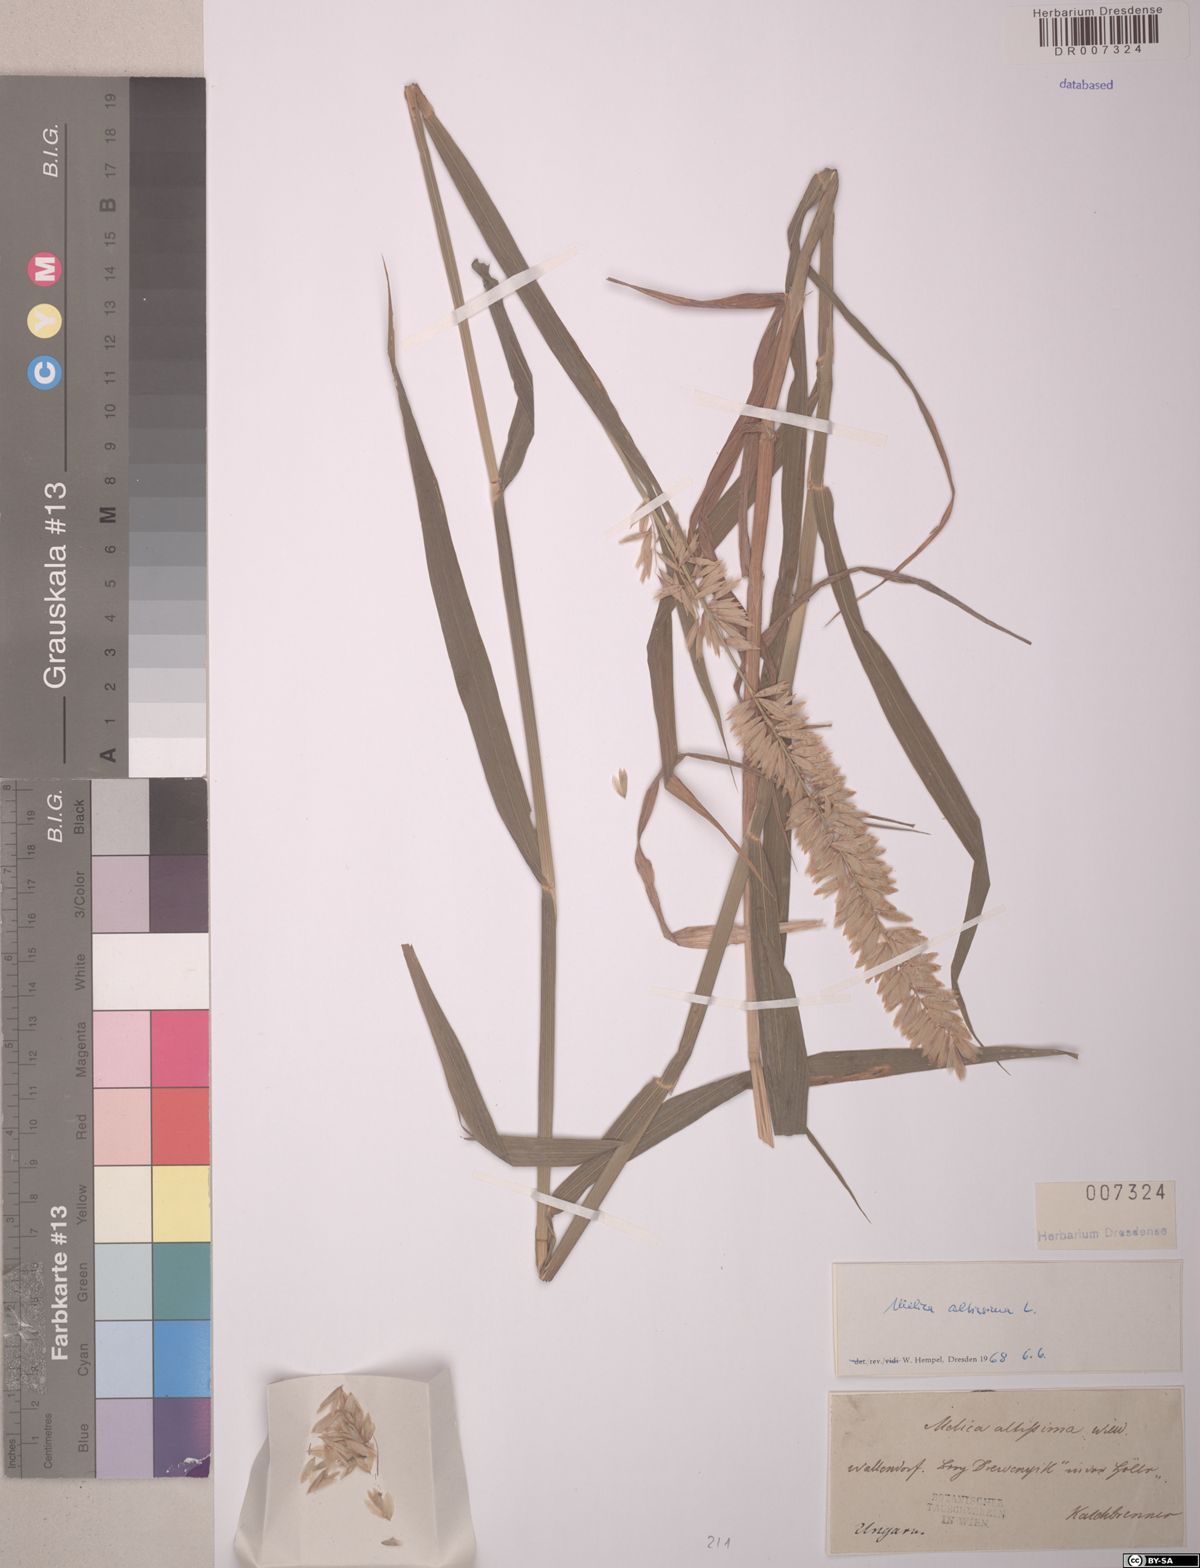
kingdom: Plantae
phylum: Tracheophyta
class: Liliopsida
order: Poales
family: Poaceae
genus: Melica
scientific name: Melica altissima
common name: Siberian melicgrass
